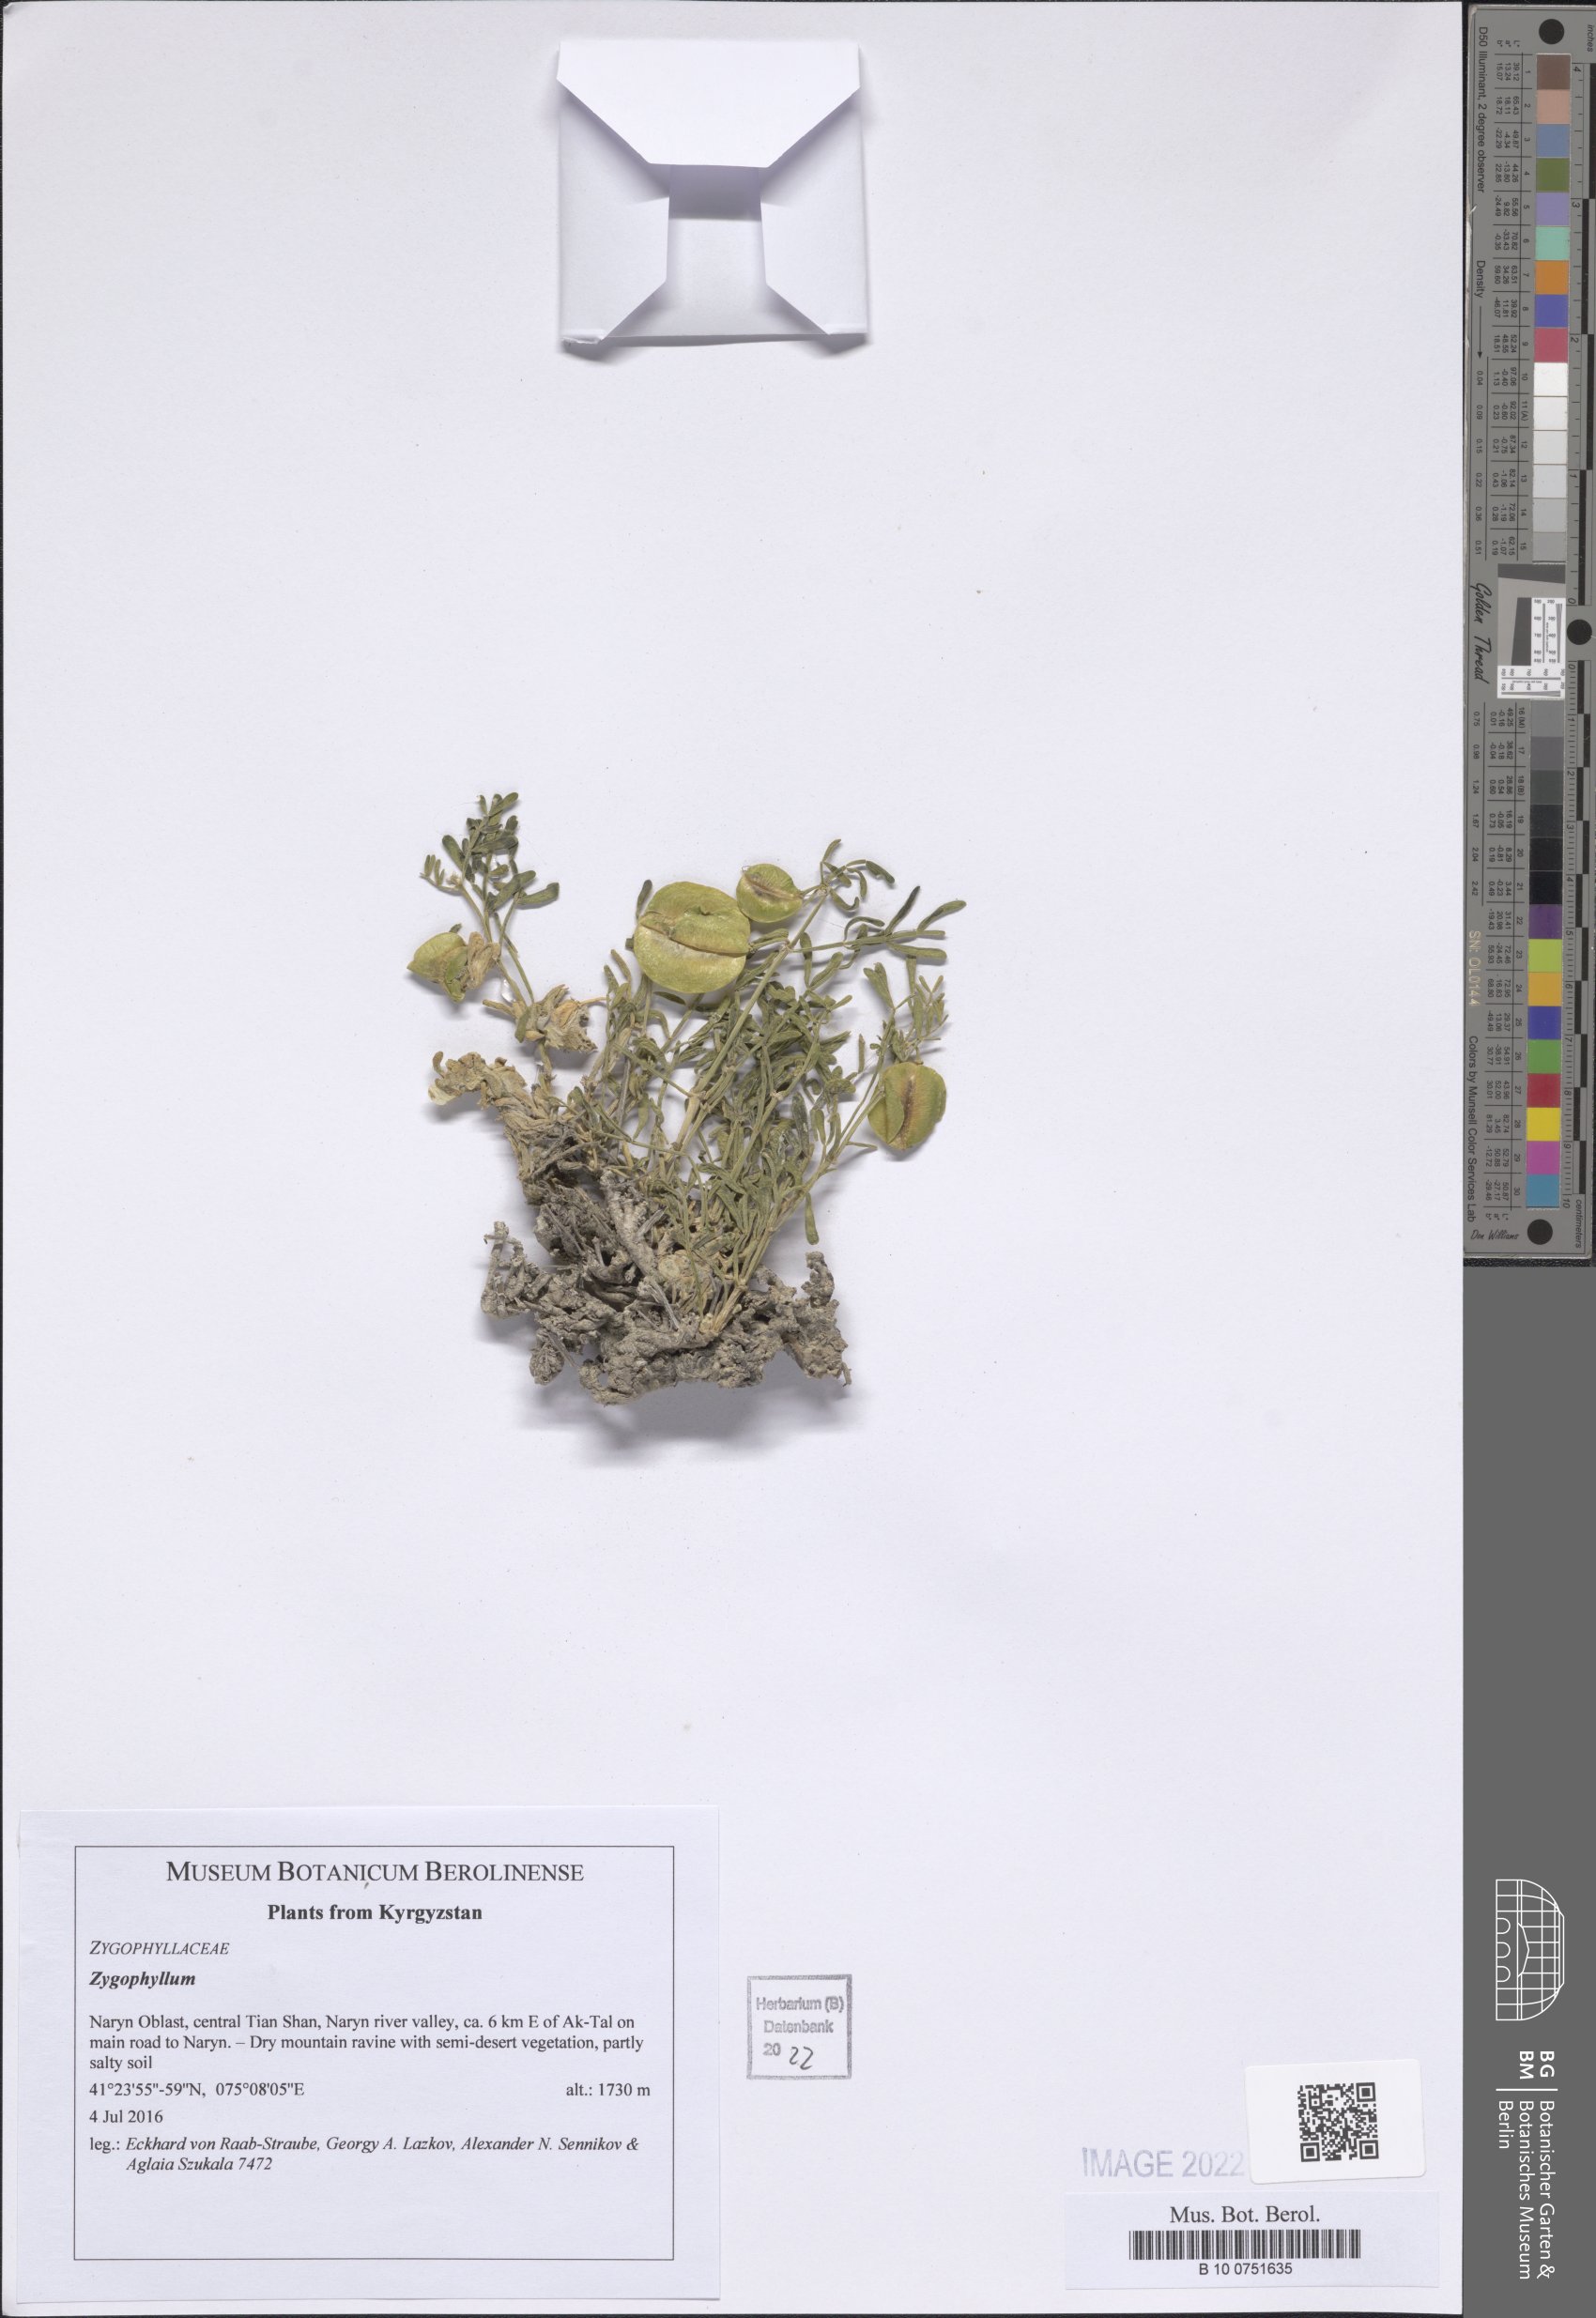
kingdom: Plantae
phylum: Tracheophyta
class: Magnoliopsida
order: Zygophyllales
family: Zygophyllaceae
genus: Zygophyllum
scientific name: Zygophyllum
